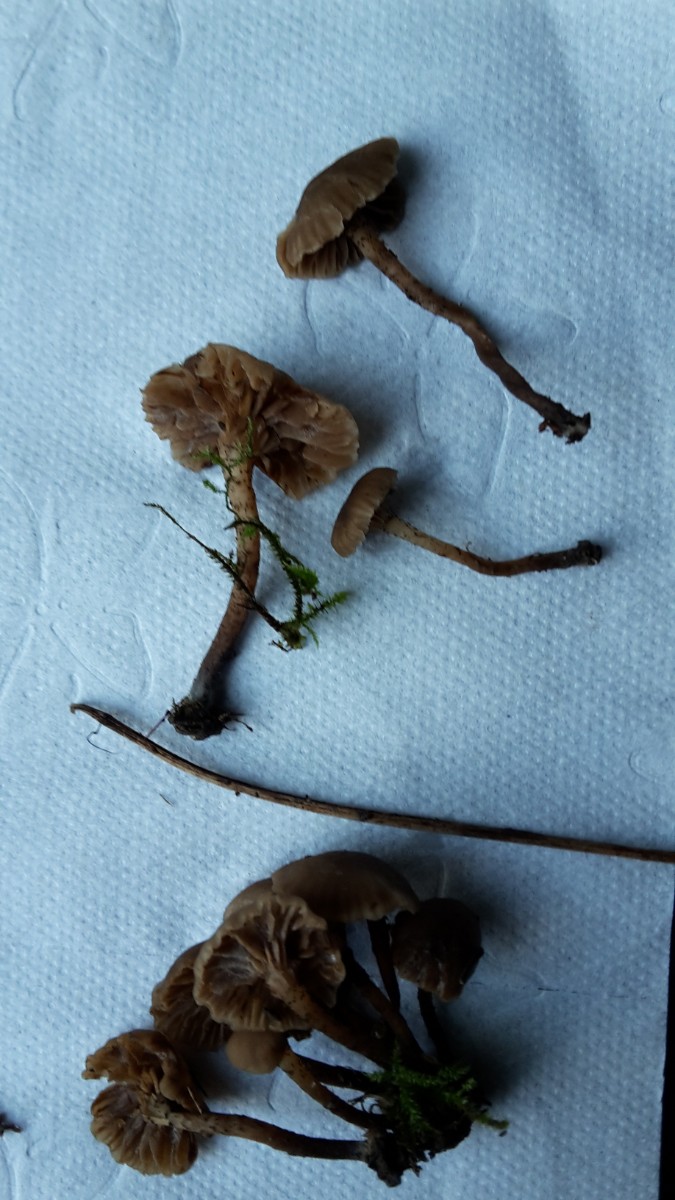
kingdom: Fungi
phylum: Basidiomycota
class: Agaricomycetes
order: Agaricales
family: Clavariaceae
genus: Hodophilus
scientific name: Hodophilus atropunctus
